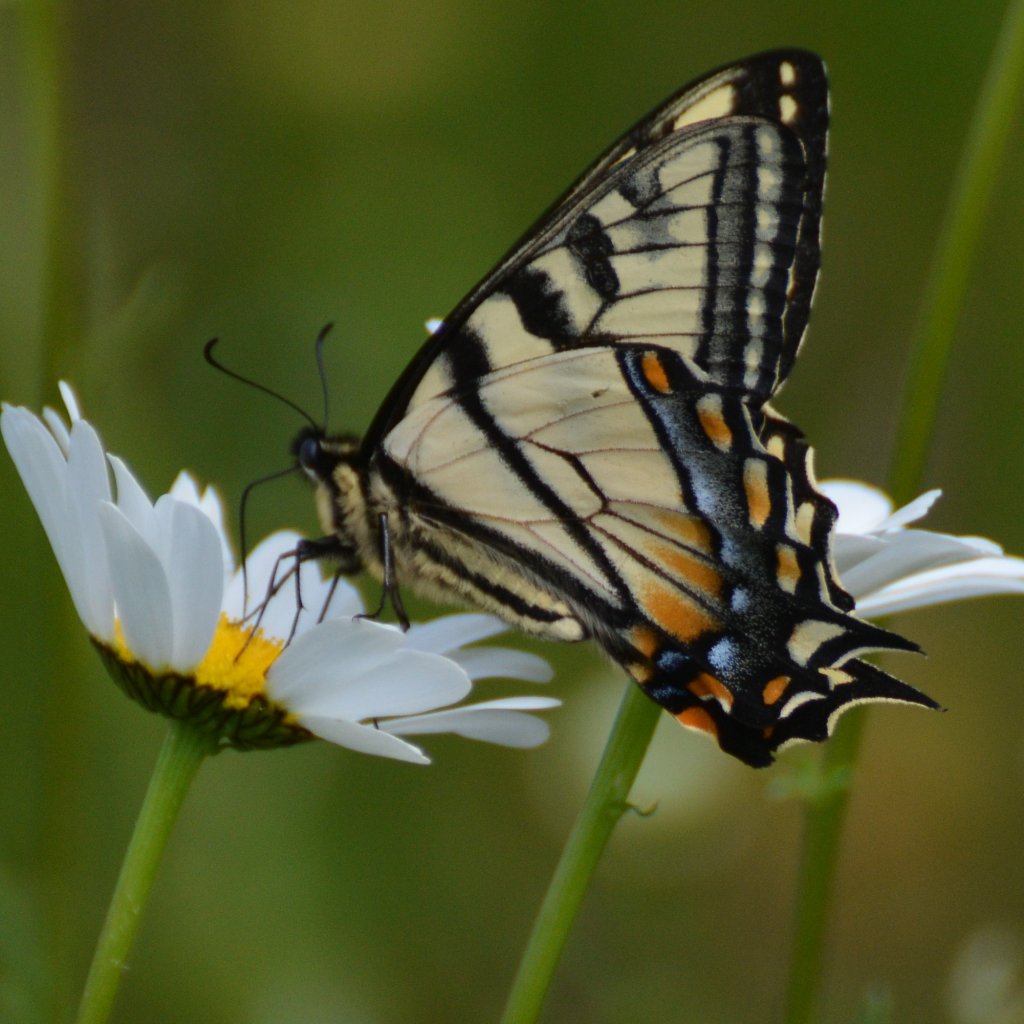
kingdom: Animalia
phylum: Arthropoda
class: Insecta
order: Lepidoptera
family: Papilionidae
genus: Pterourus
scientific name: Pterourus canadensis
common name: Canadian Tiger Swallowtail
